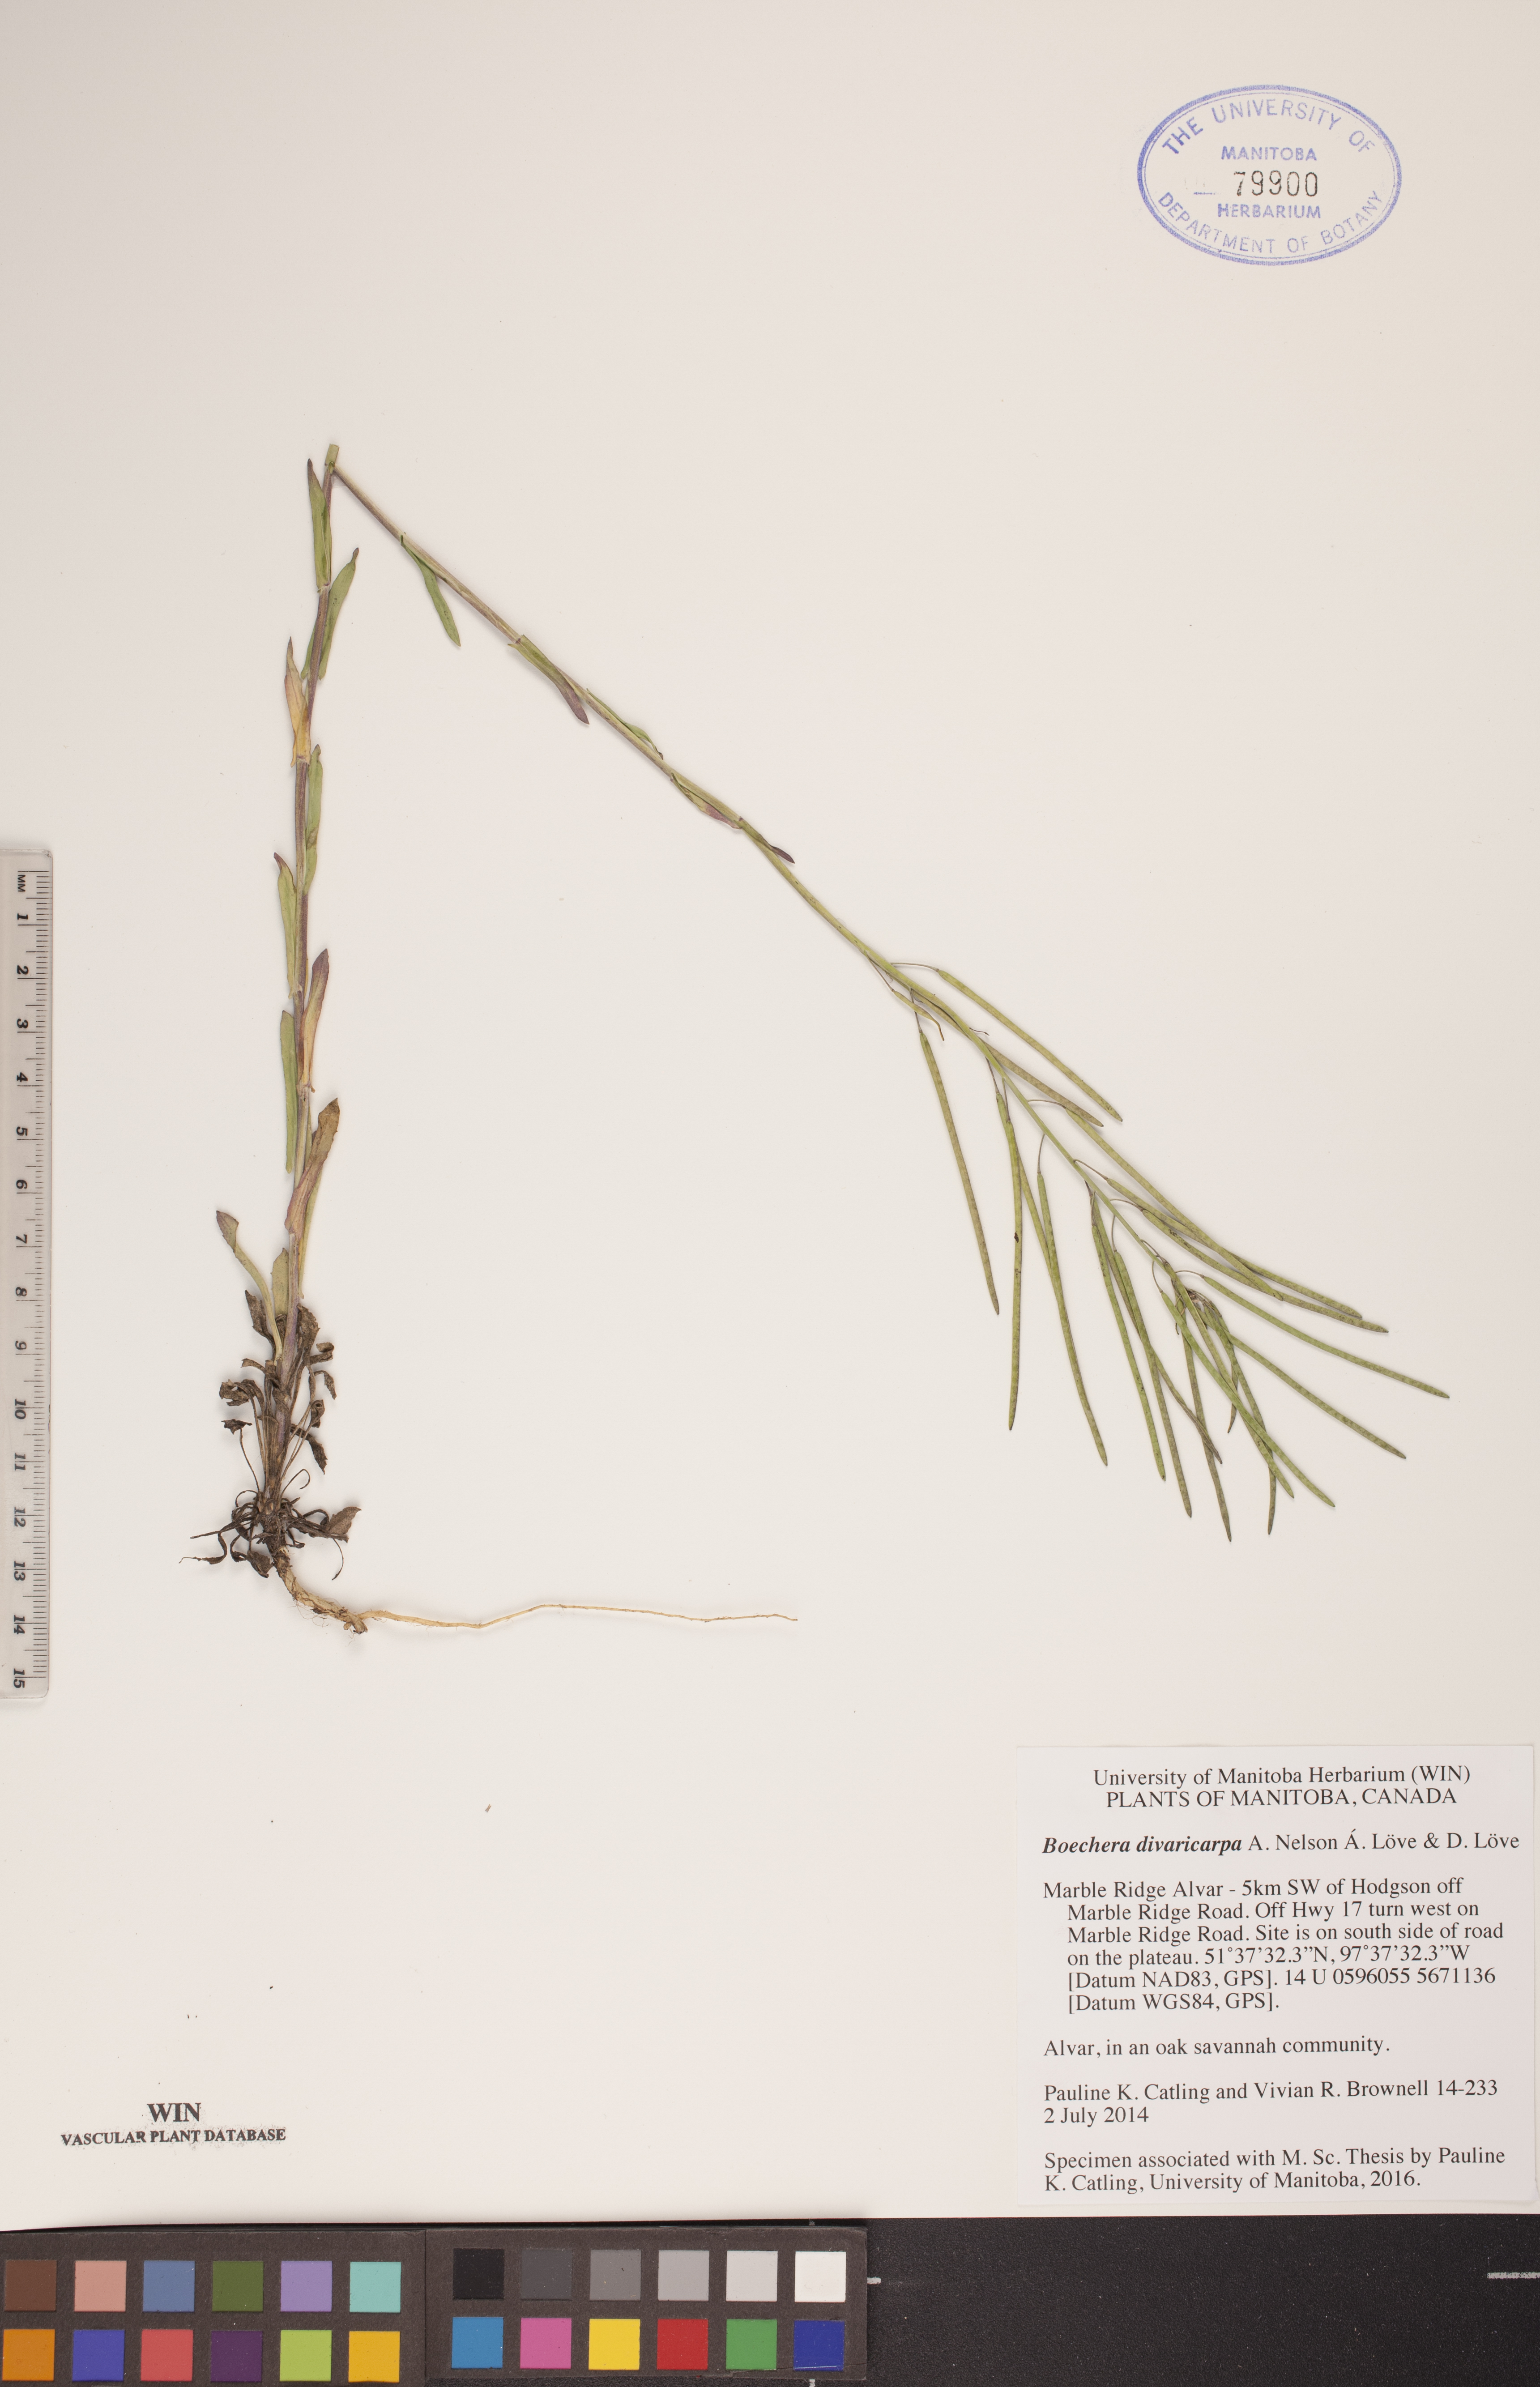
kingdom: Plantae
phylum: Tracheophyta
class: Magnoliopsida
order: Brassicales
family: Brassicaceae
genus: Boechera
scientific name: Boechera divaricarpa
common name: Divaricate rockcress
